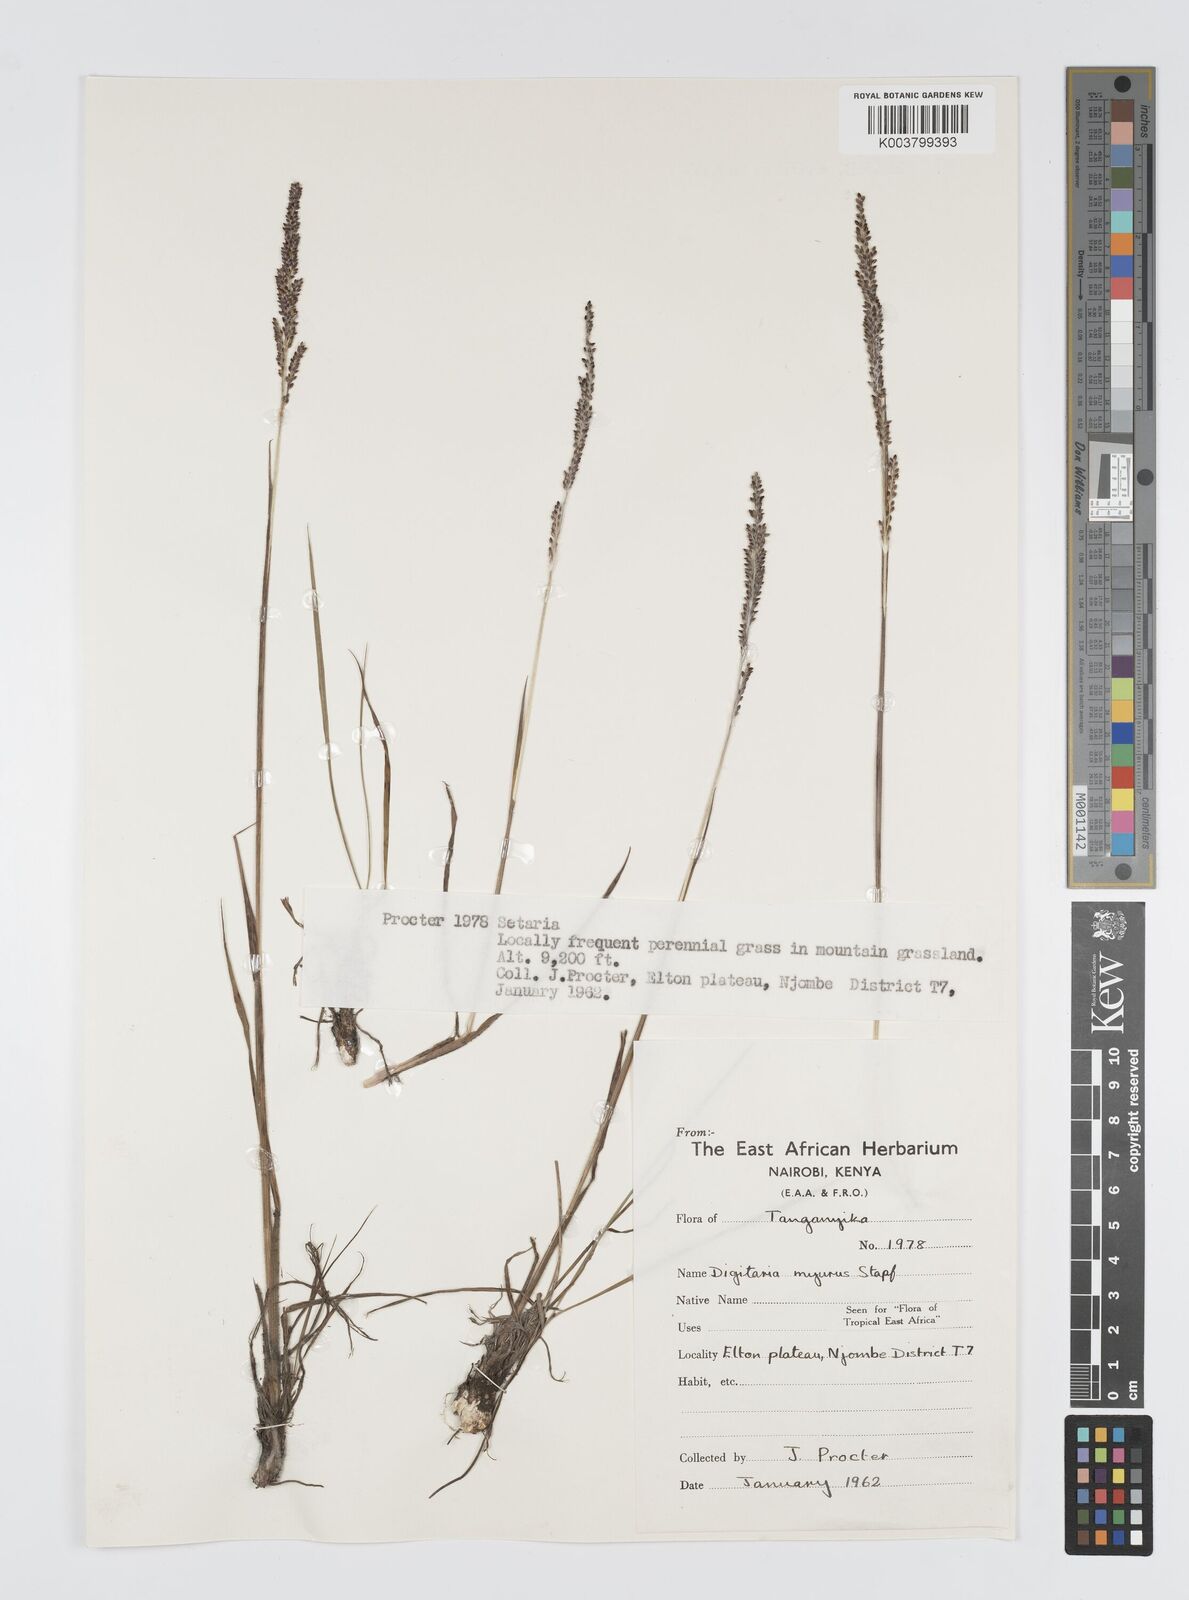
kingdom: Plantae
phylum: Tracheophyta
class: Liliopsida
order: Poales
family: Poaceae
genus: Digitaria
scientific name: Digitaria myurus
